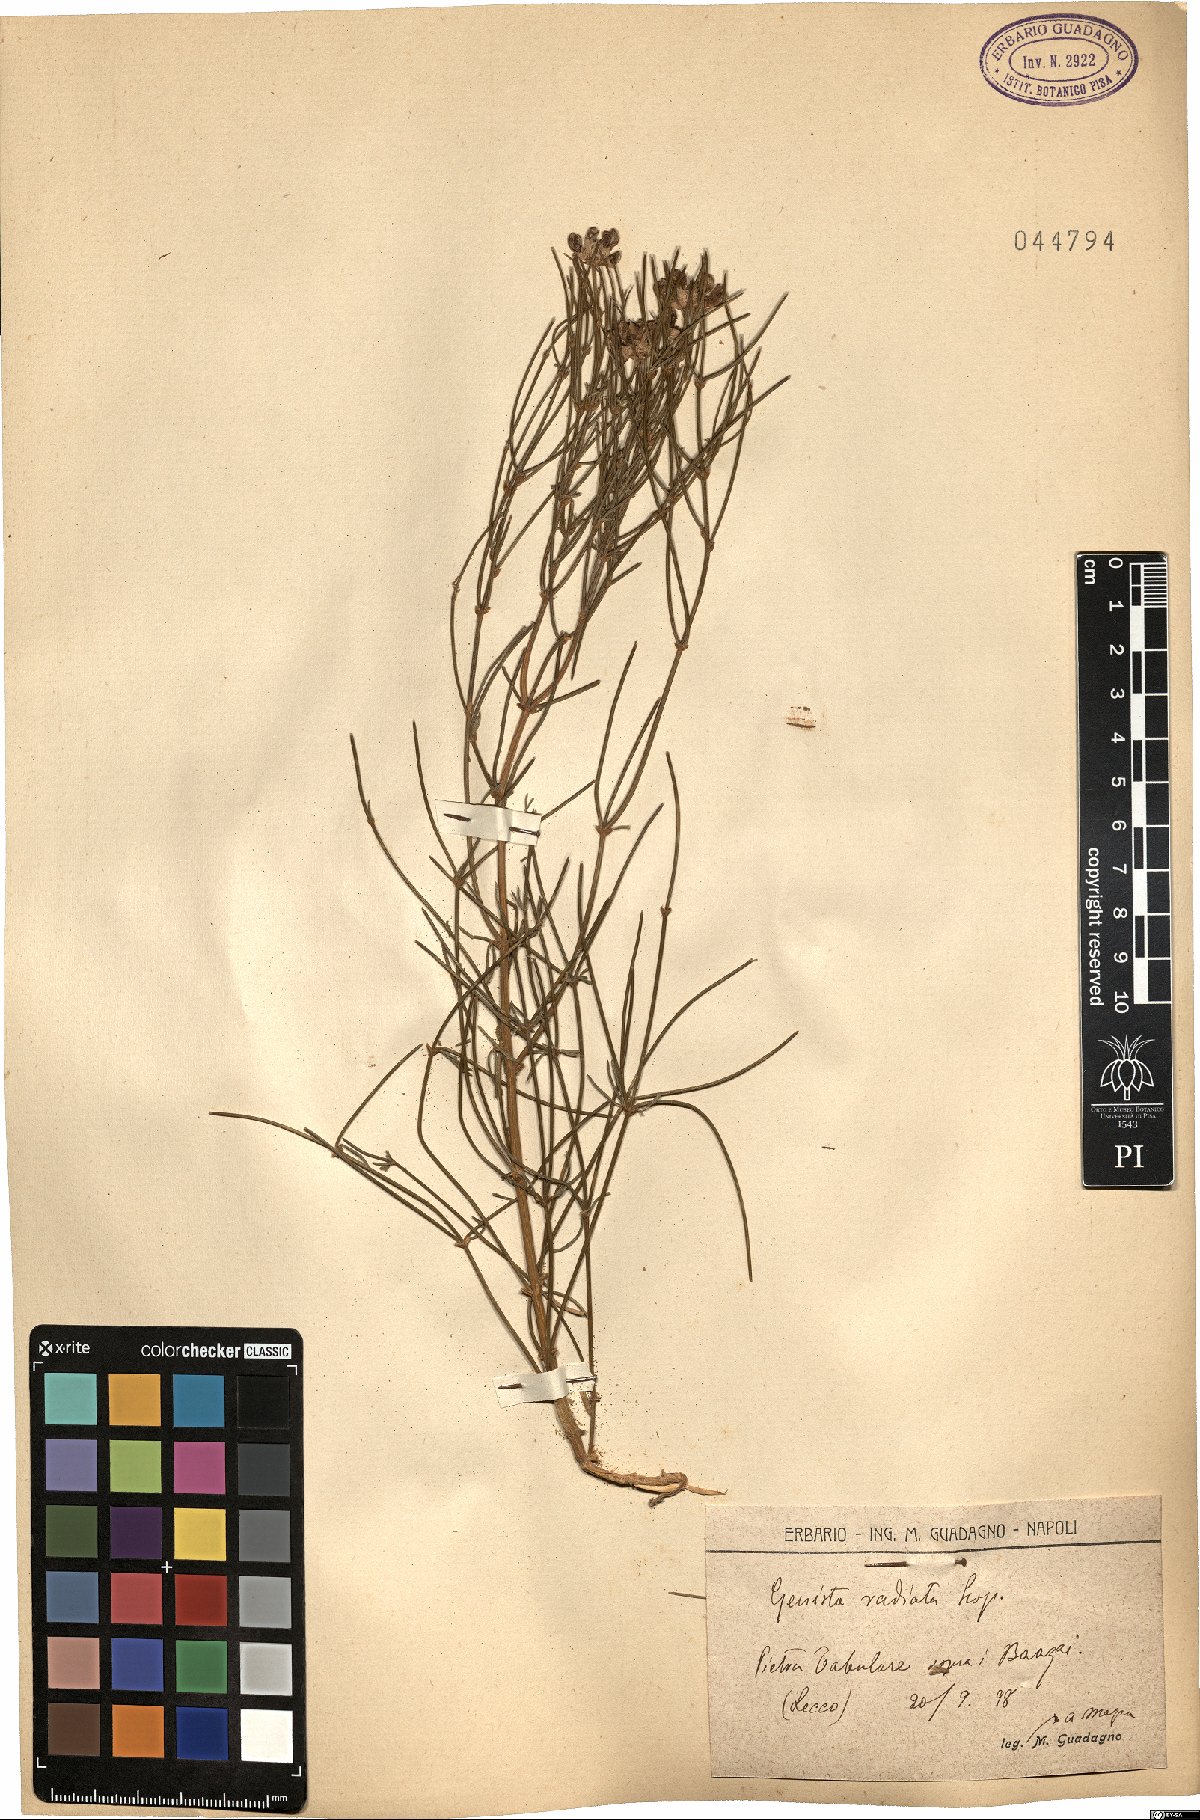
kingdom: Plantae
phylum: Tracheophyta
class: Magnoliopsida
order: Fabales
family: Fabaceae
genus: Genista
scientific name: Genista radiata
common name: Southern greenweed
